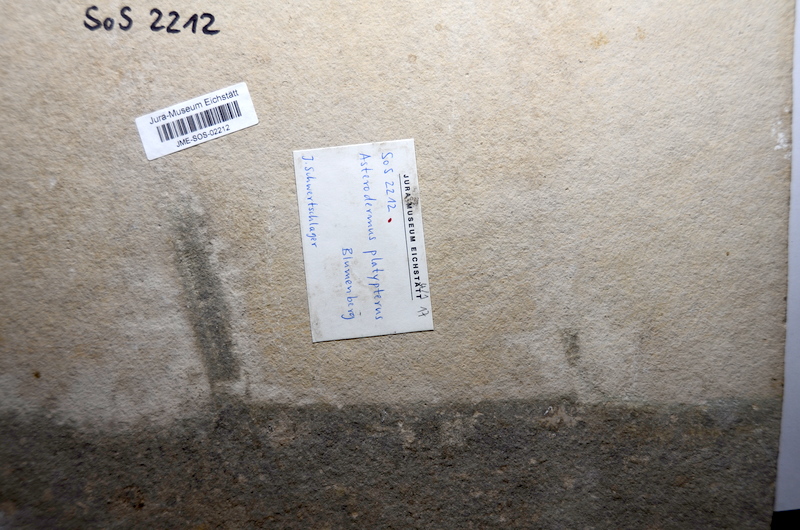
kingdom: Animalia
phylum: Chordata
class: Elasmobranchii
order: Rhinopristiformes
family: Rhinobatidae
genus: Asterodermus
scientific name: Asterodermus platypterus
